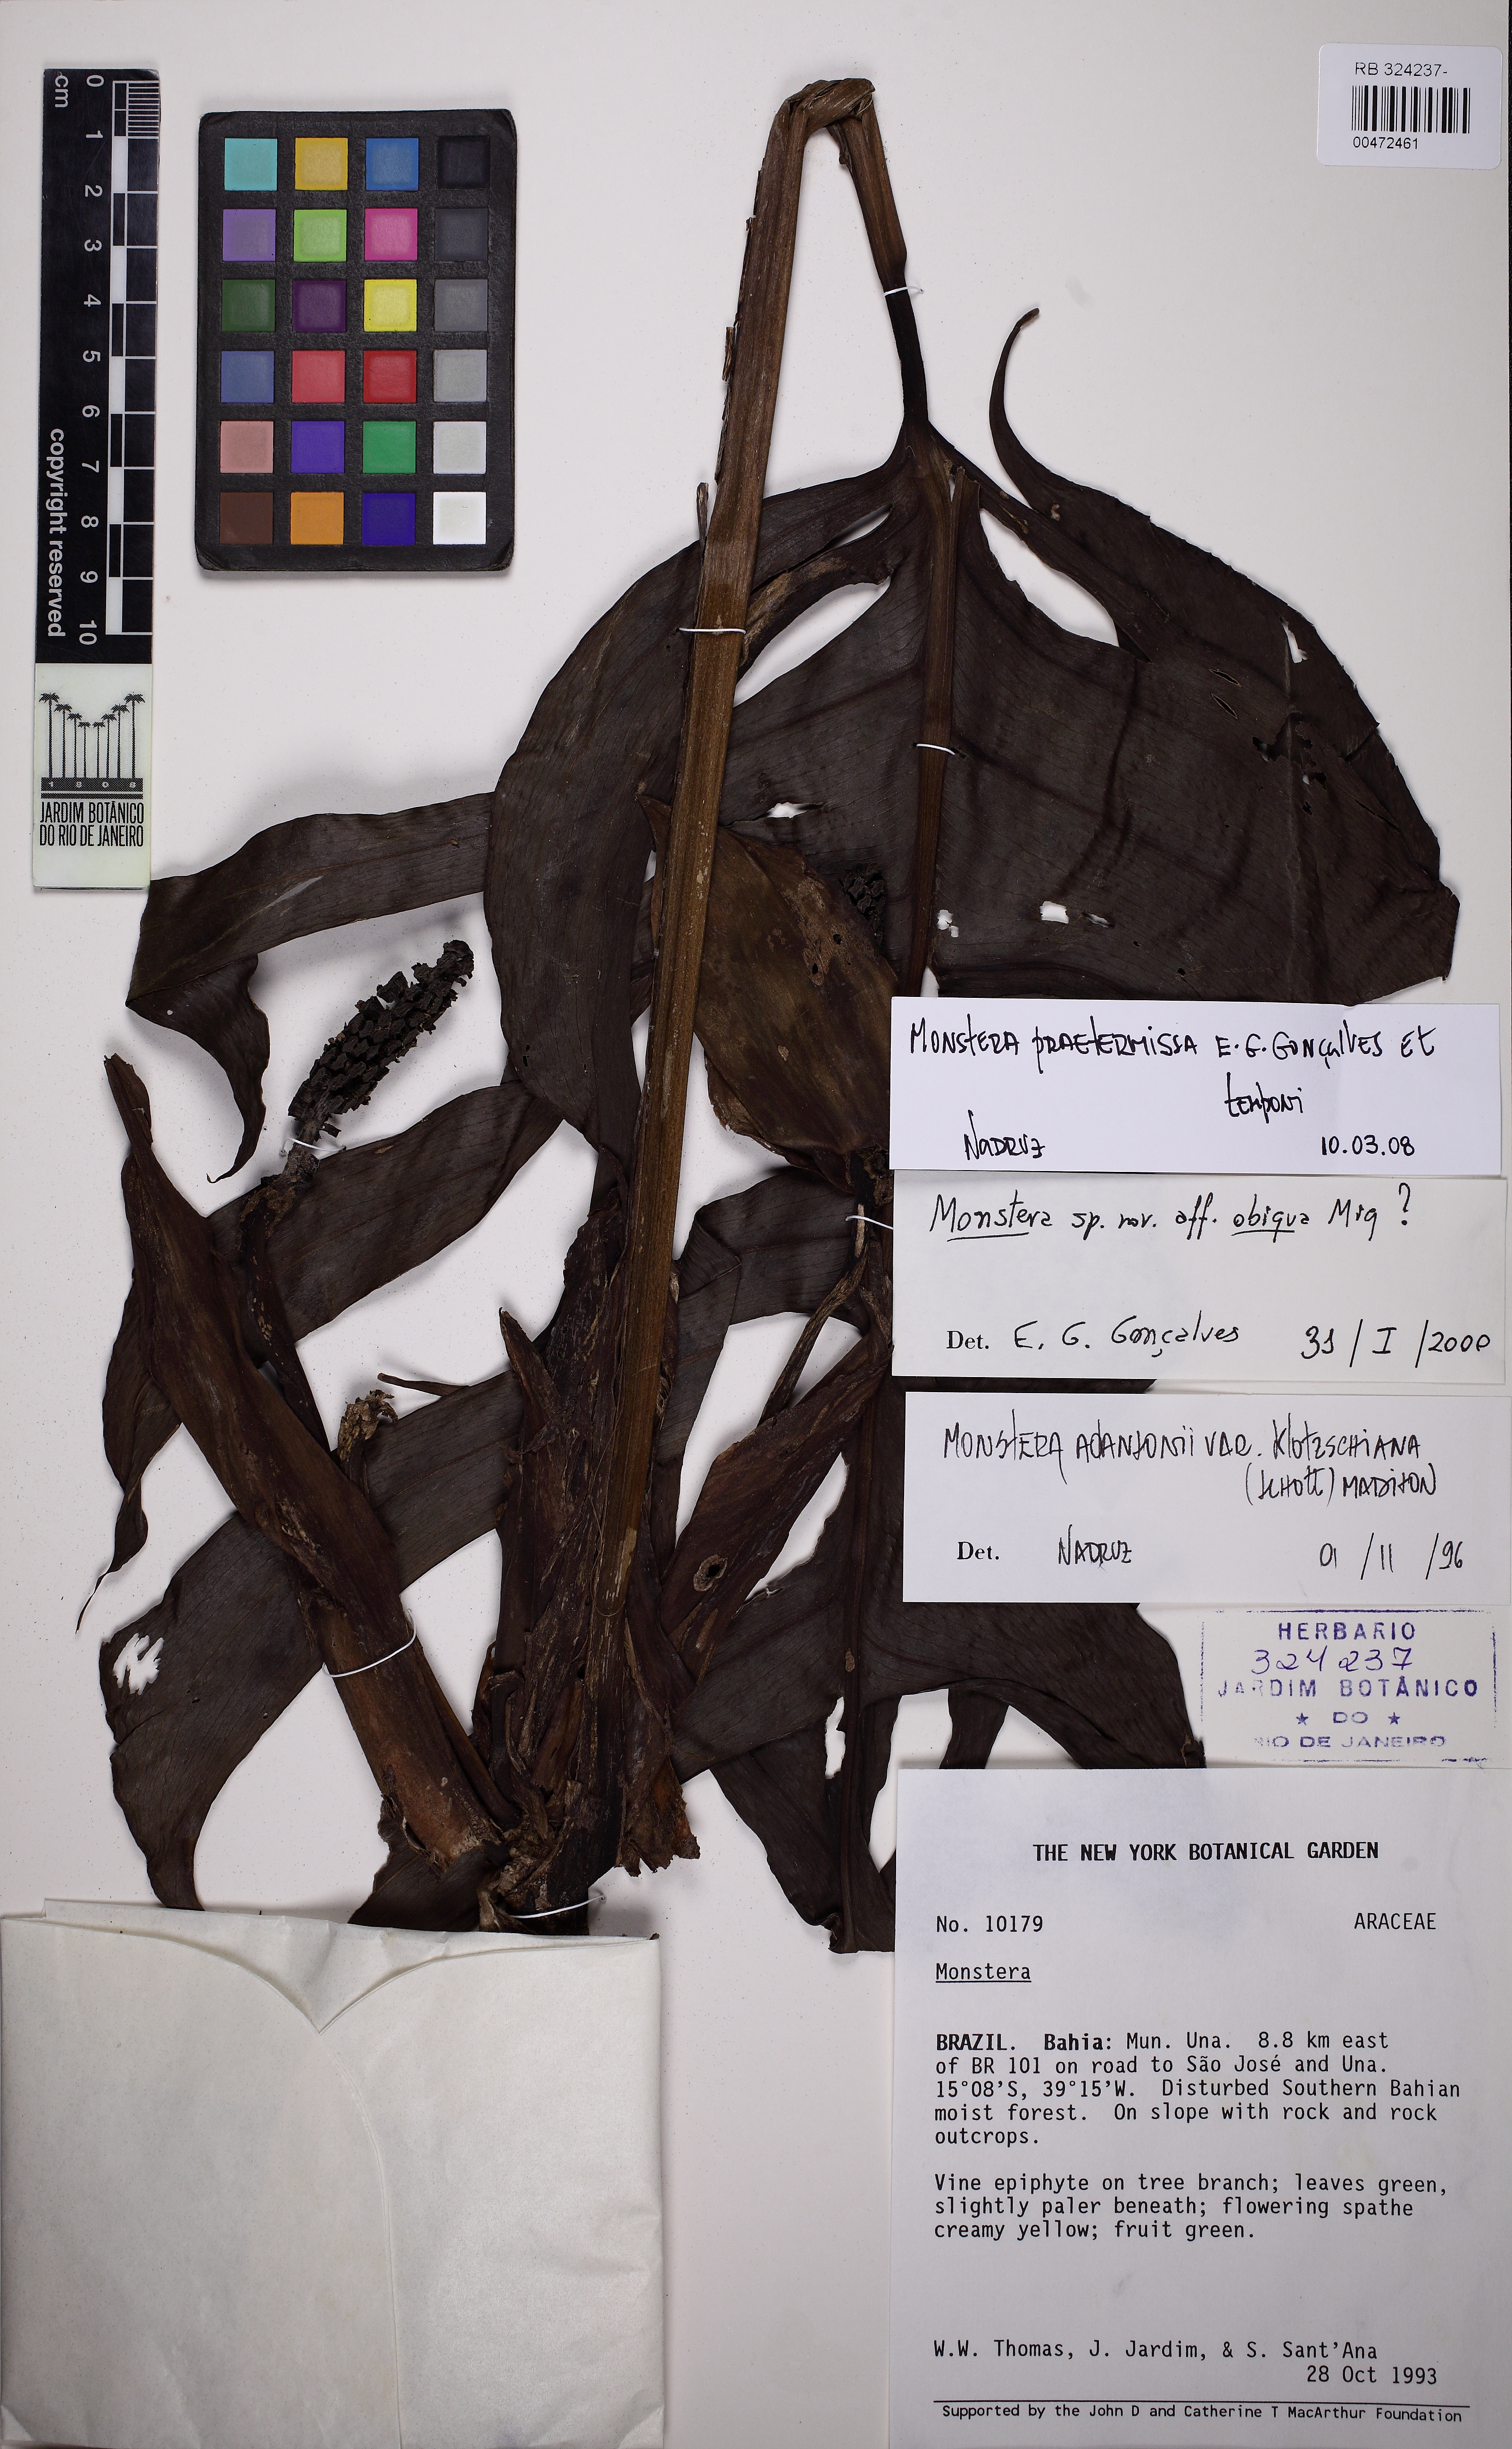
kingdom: Plantae
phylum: Tracheophyta
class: Liliopsida
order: Alismatales
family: Araceae
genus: Monstera
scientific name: Monstera praetermissa
